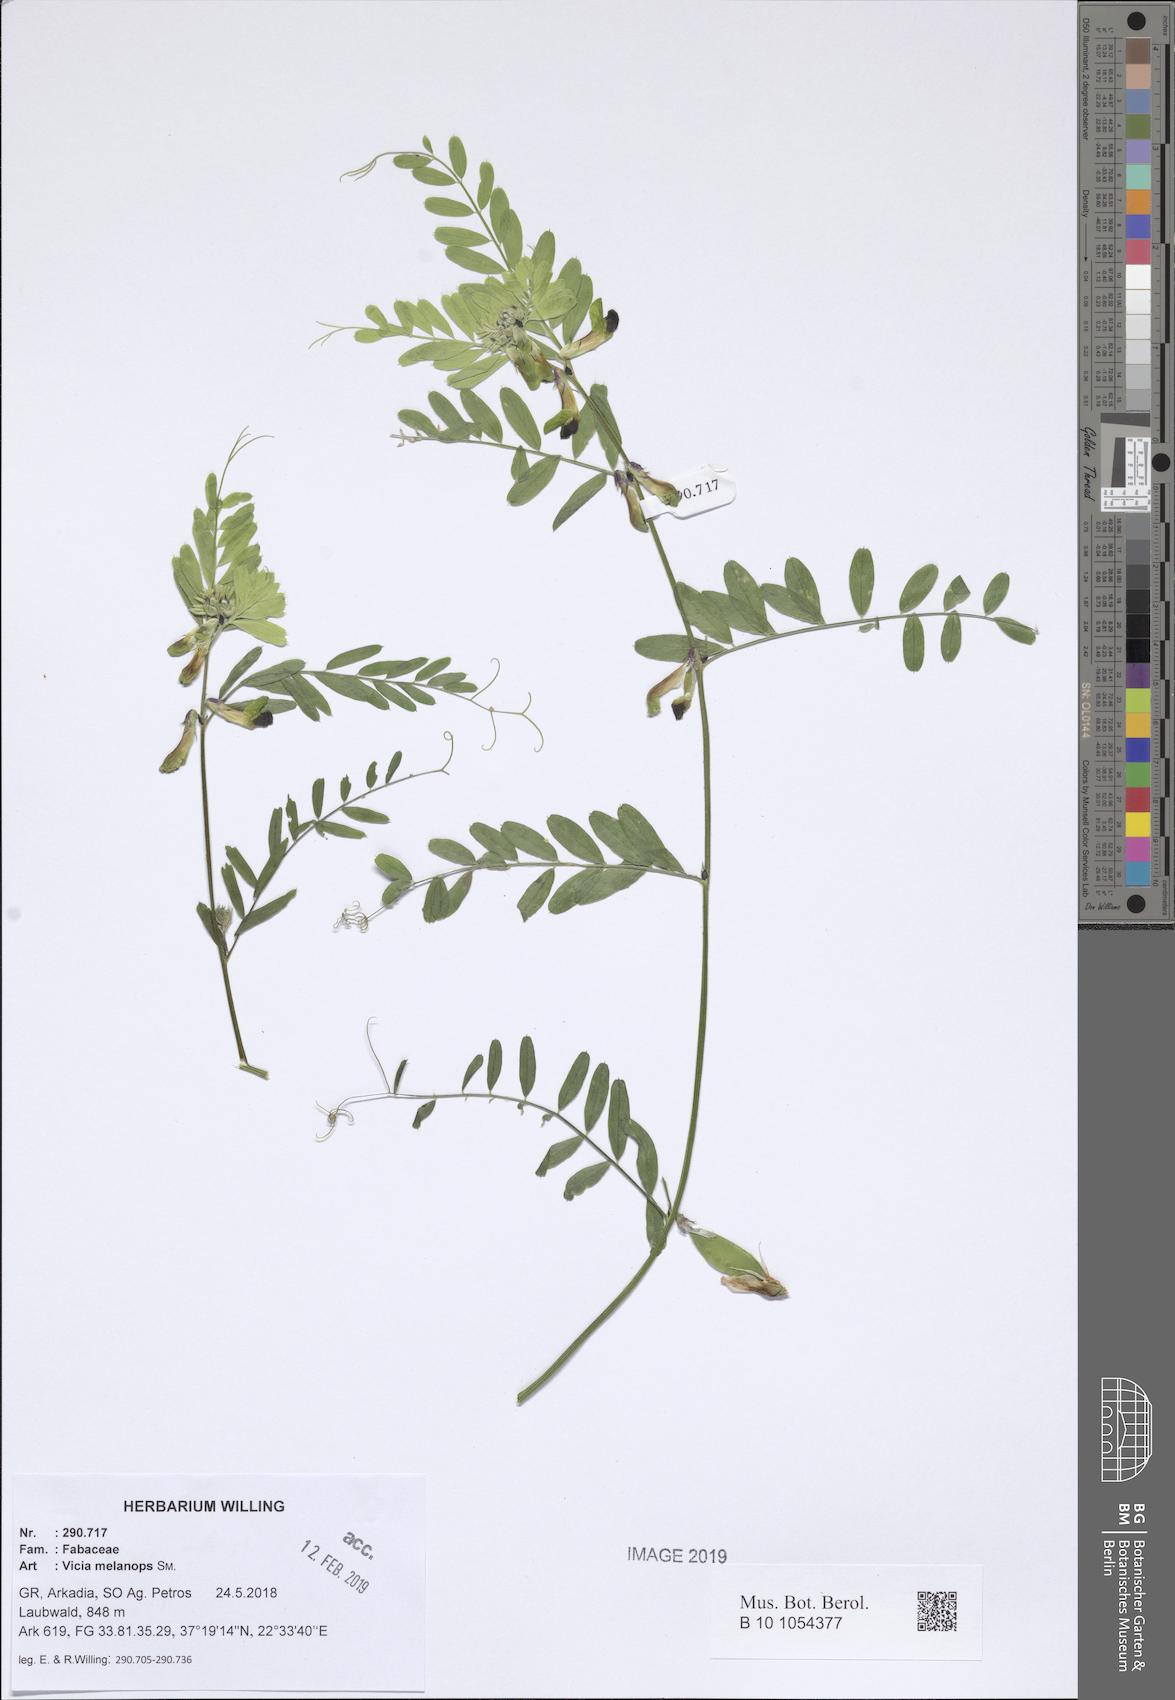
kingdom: Plantae
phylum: Tracheophyta
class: Magnoliopsida
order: Fabales
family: Fabaceae
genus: Vicia
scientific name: Vicia melanops
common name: Black-eyed vetch
